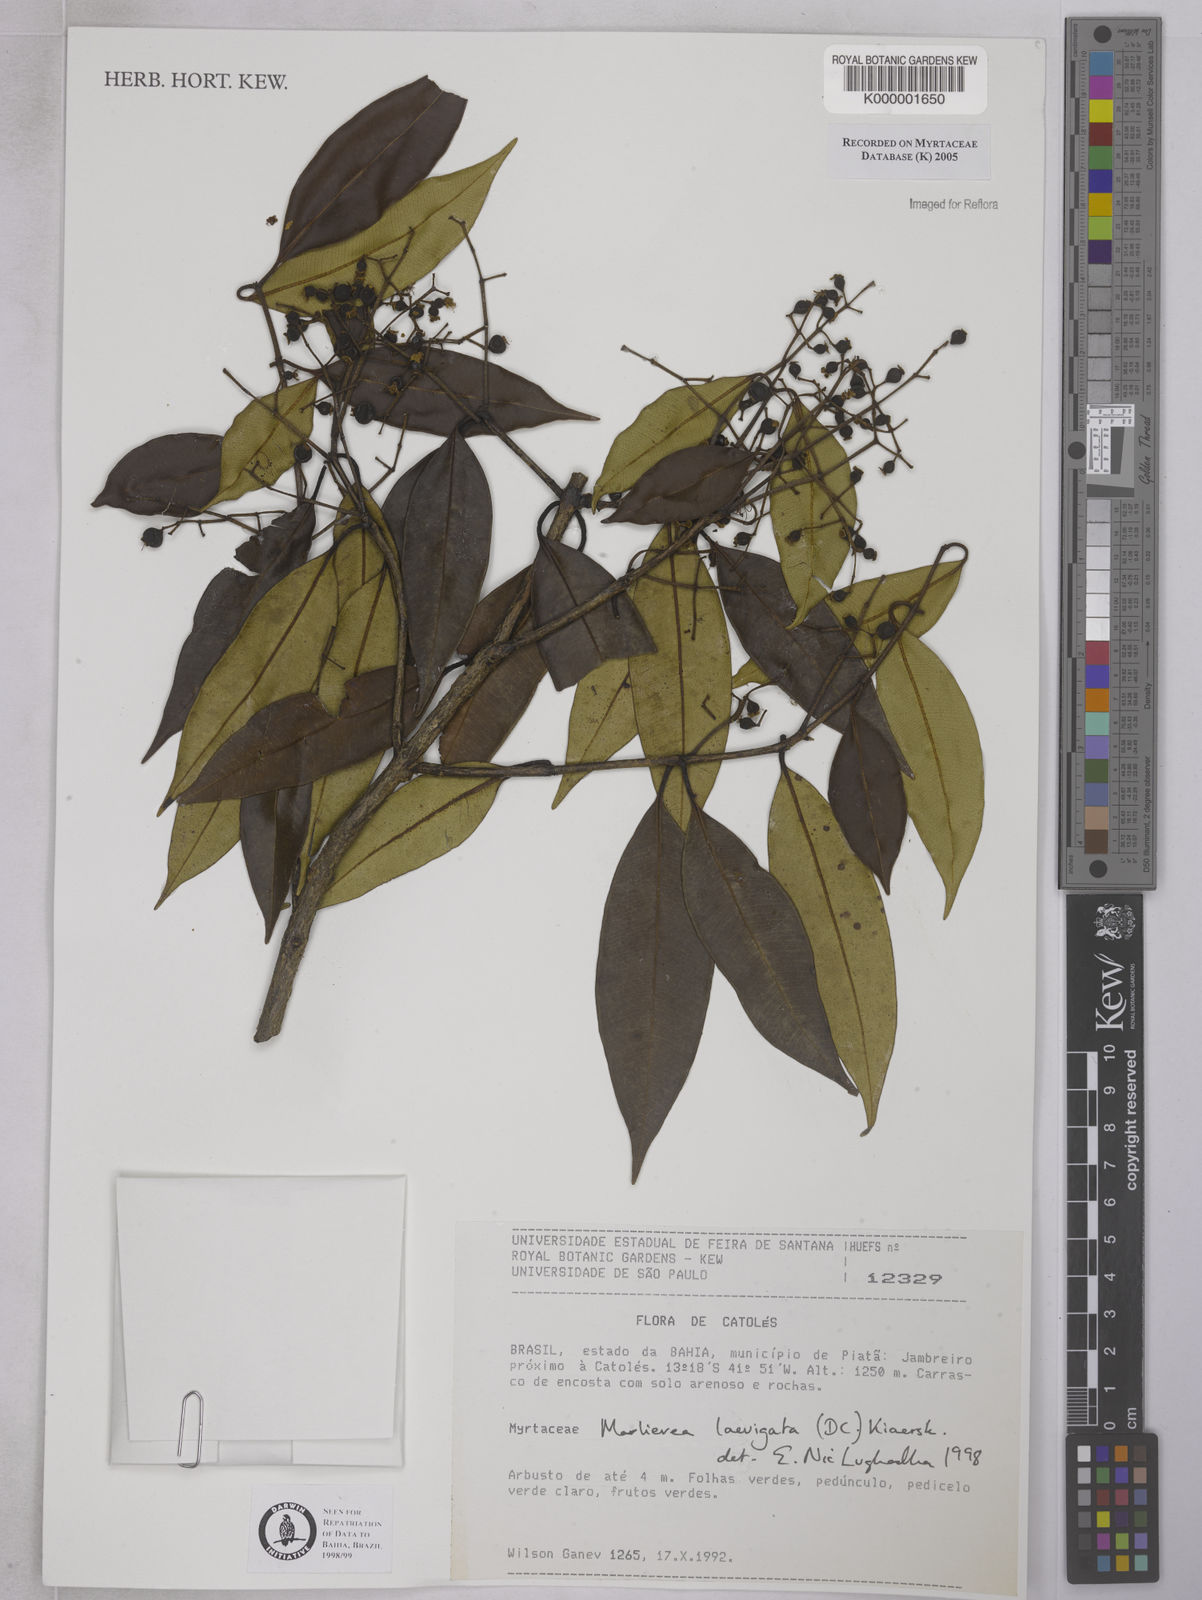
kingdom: Plantae
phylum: Tracheophyta
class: Magnoliopsida
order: Myrtales
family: Myrtaceae
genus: Myrcia
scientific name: Myrcia multipunctata
